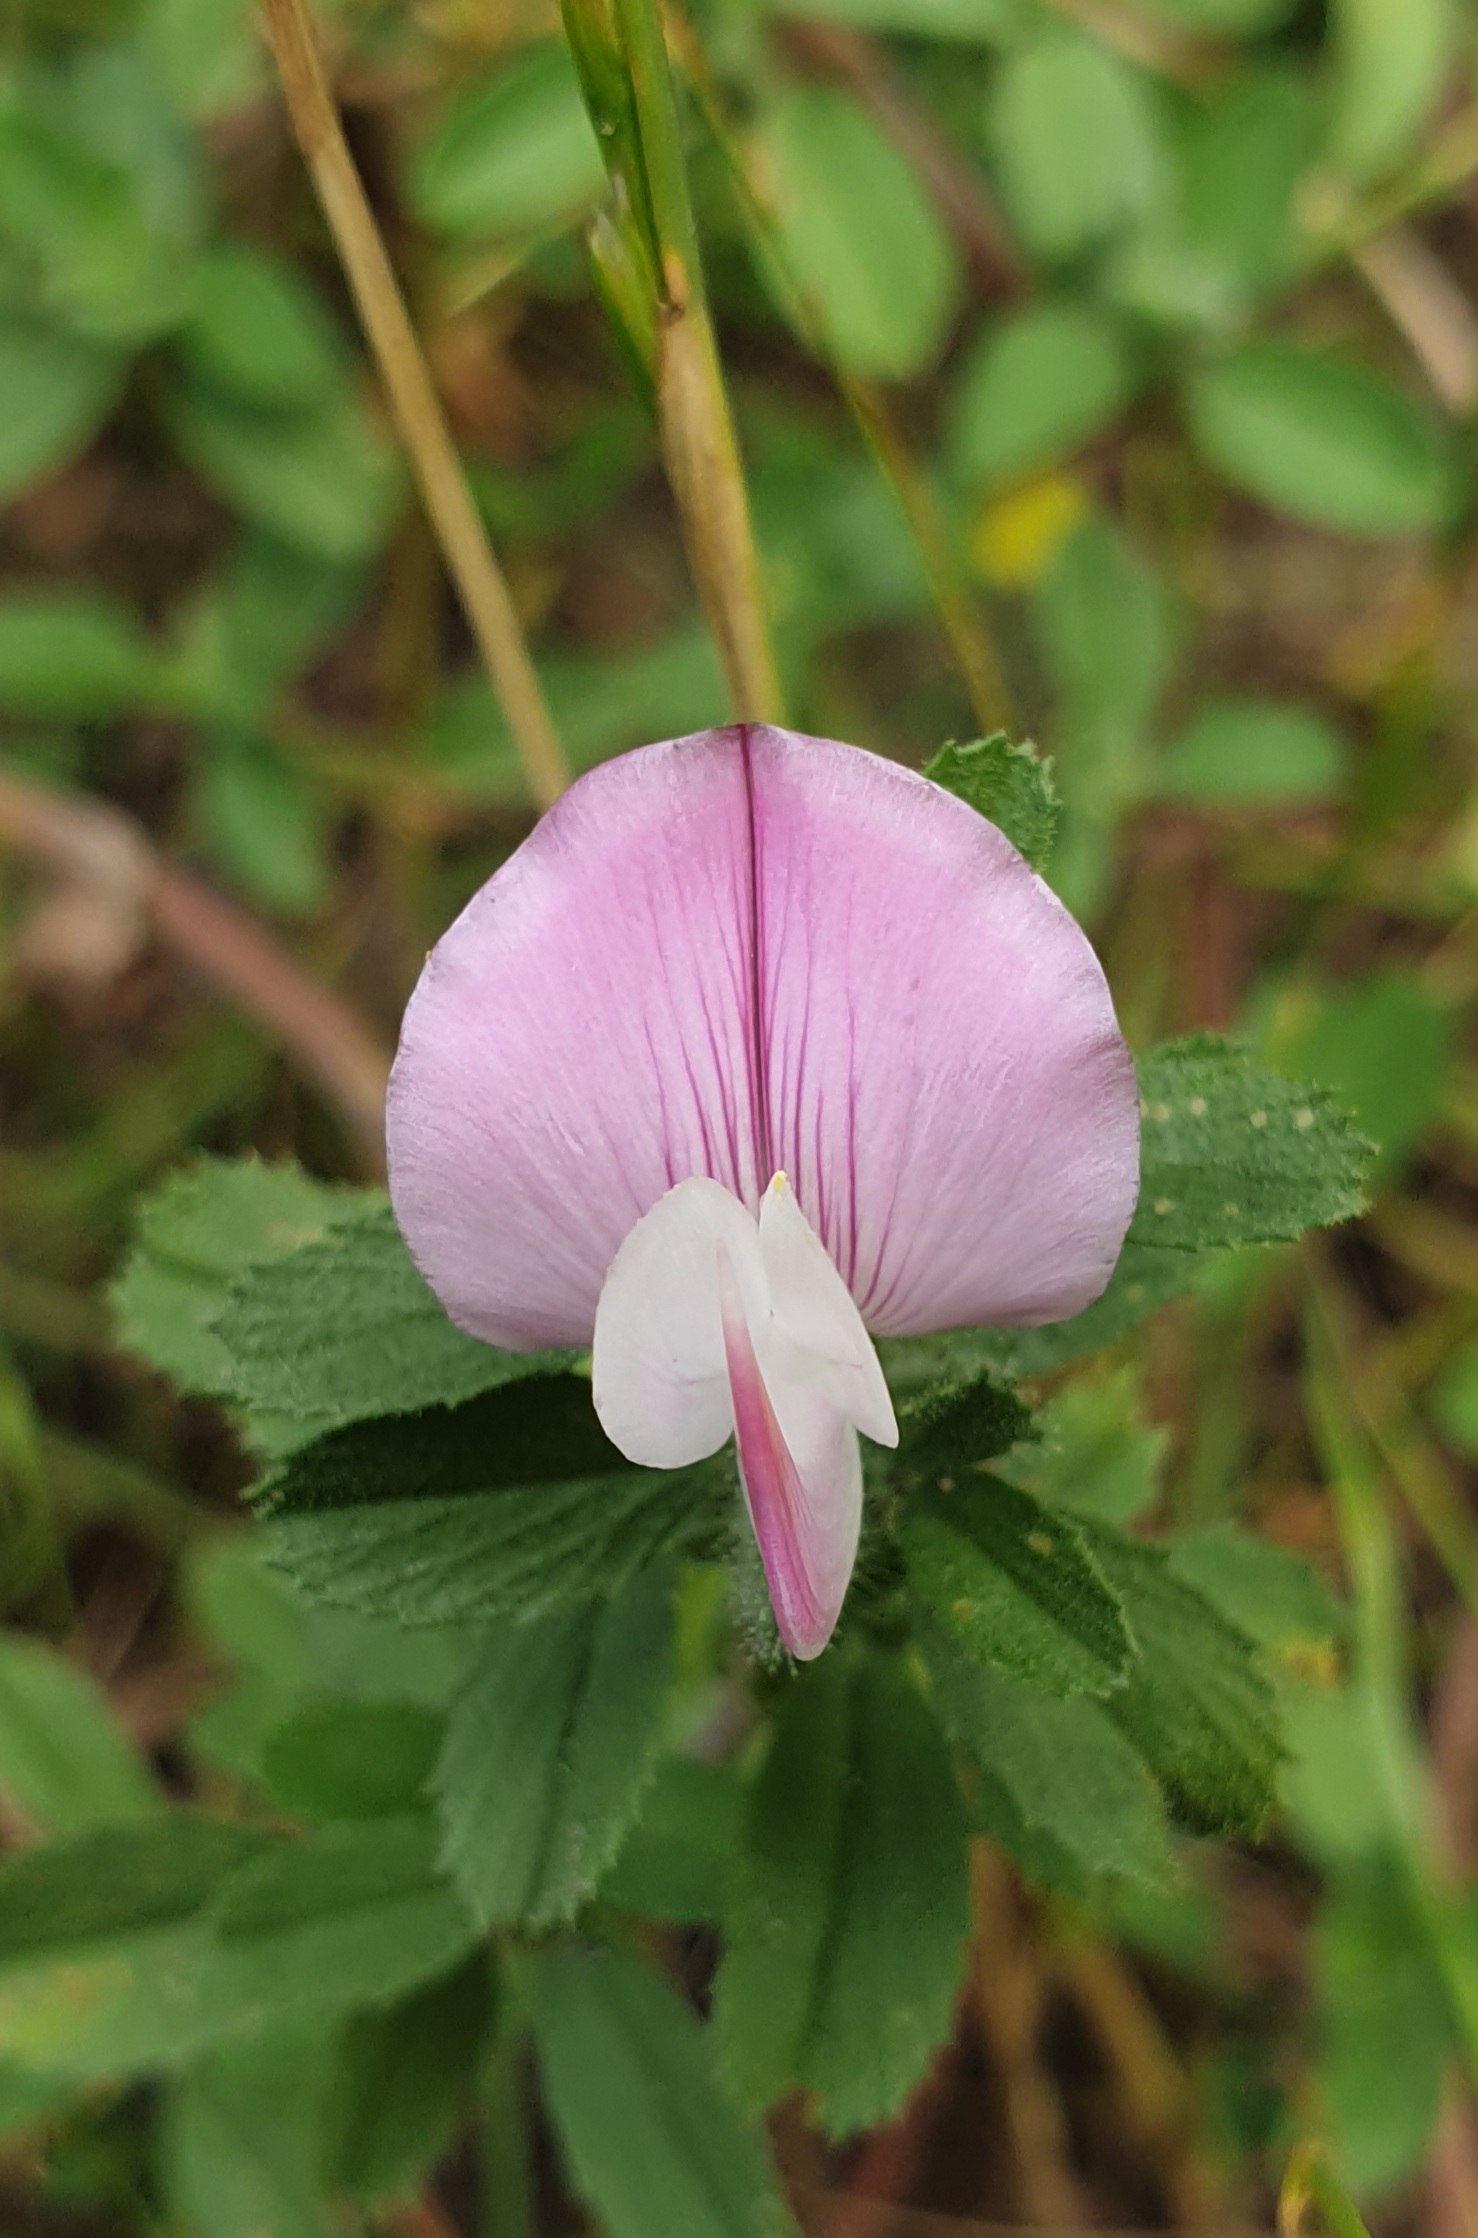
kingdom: Plantae
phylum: Tracheophyta
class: Magnoliopsida
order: Fabales
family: Fabaceae
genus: Ononis
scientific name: Ononis spinosa
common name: Mark-krageklo
